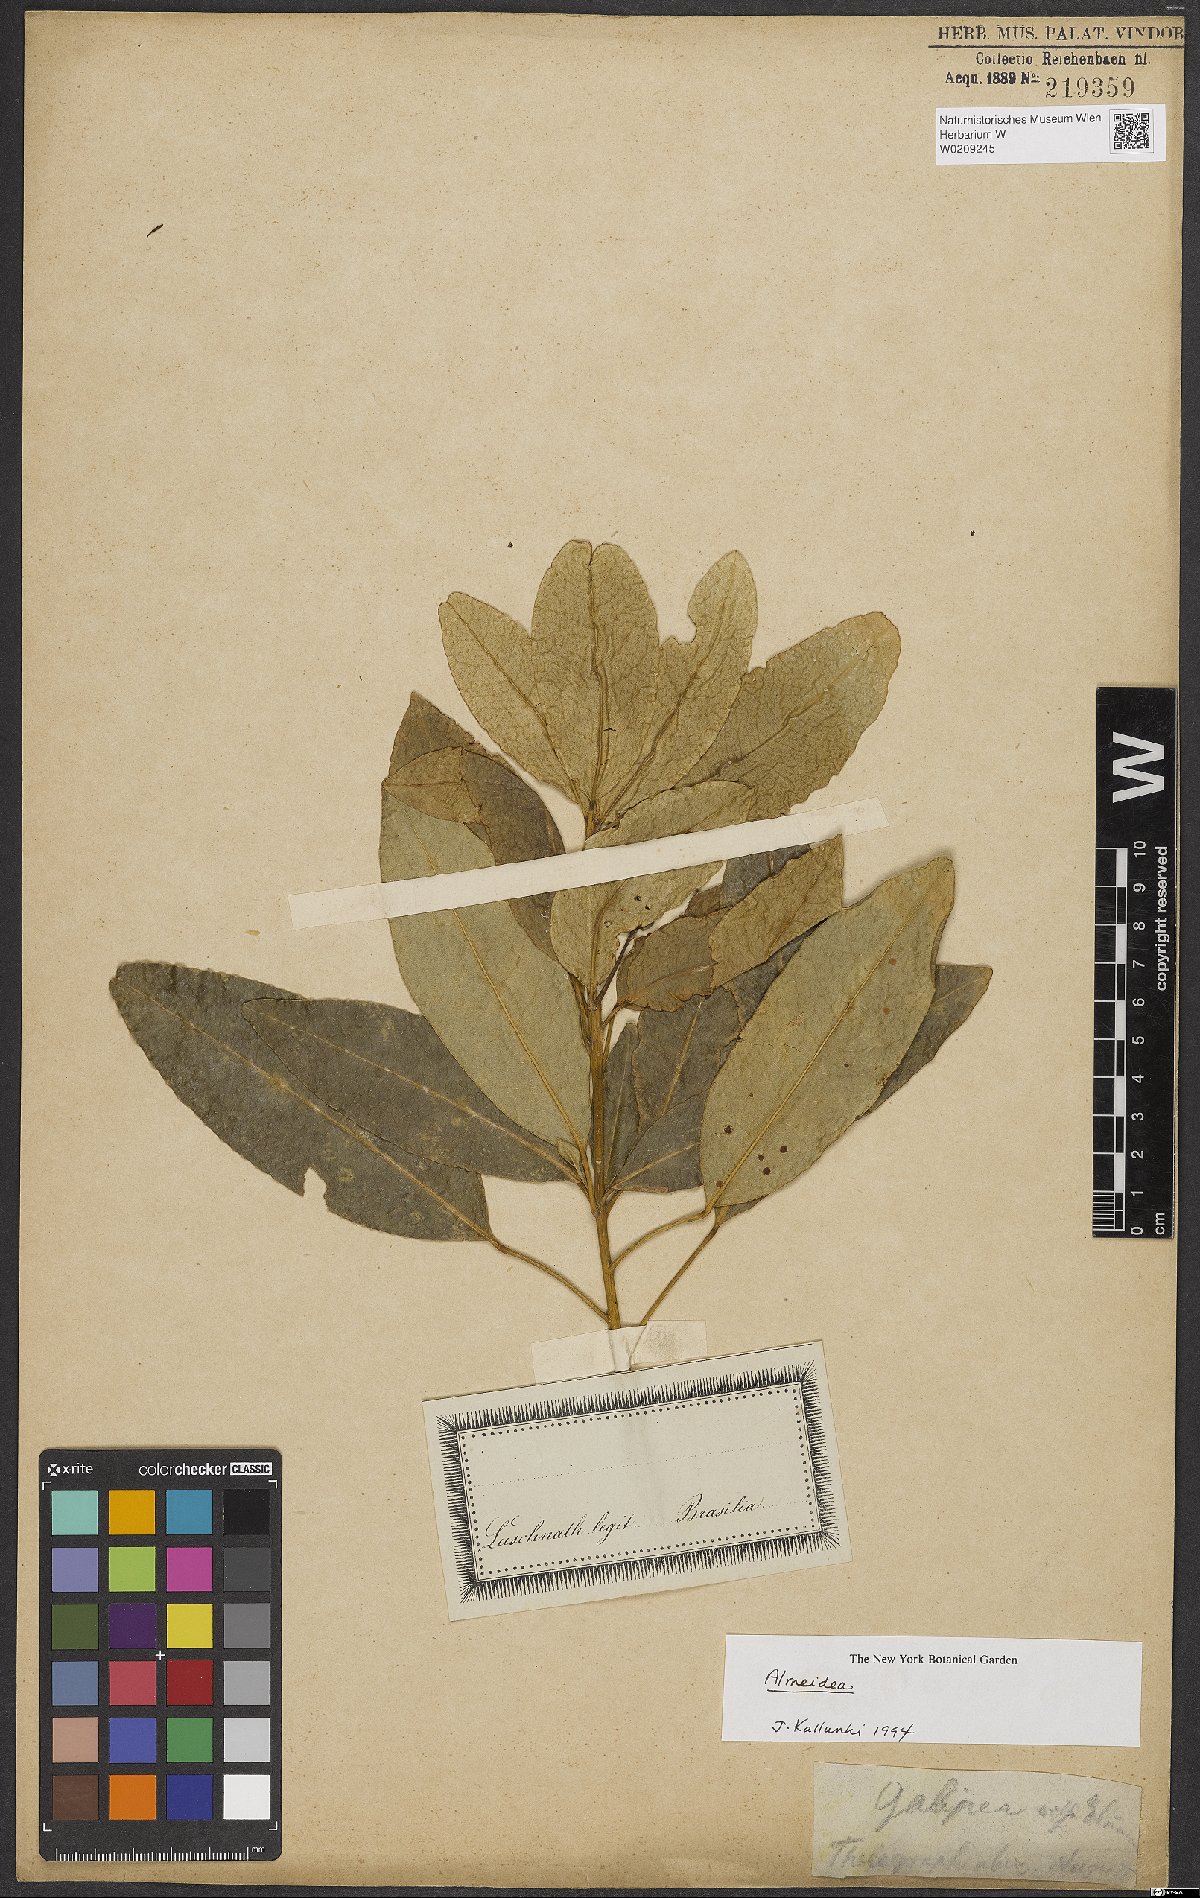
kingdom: Plantae
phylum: Tracheophyta
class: Magnoliopsida
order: Sapindales
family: Rutaceae
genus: Conchocarpus
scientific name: Conchocarpus
